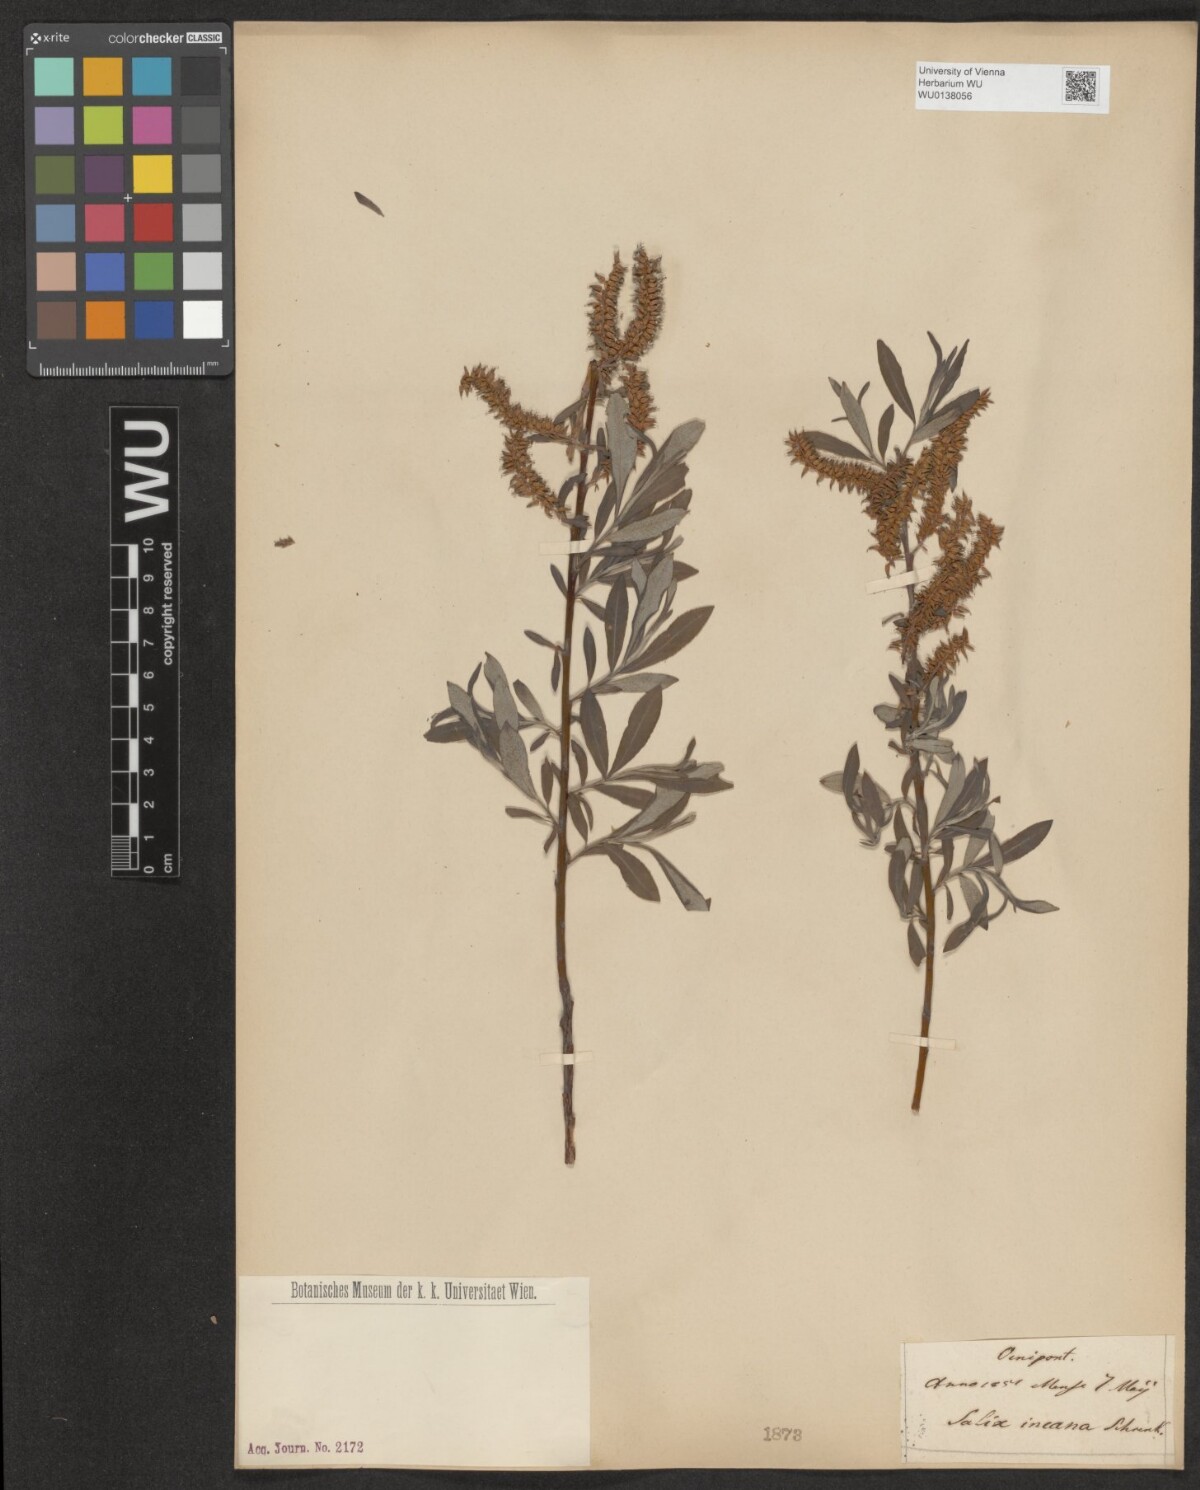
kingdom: Plantae
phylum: Tracheophyta
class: Magnoliopsida
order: Malpighiales
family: Salicaceae
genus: Salix
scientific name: Salix eleagnos
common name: Elaeagnus willow
